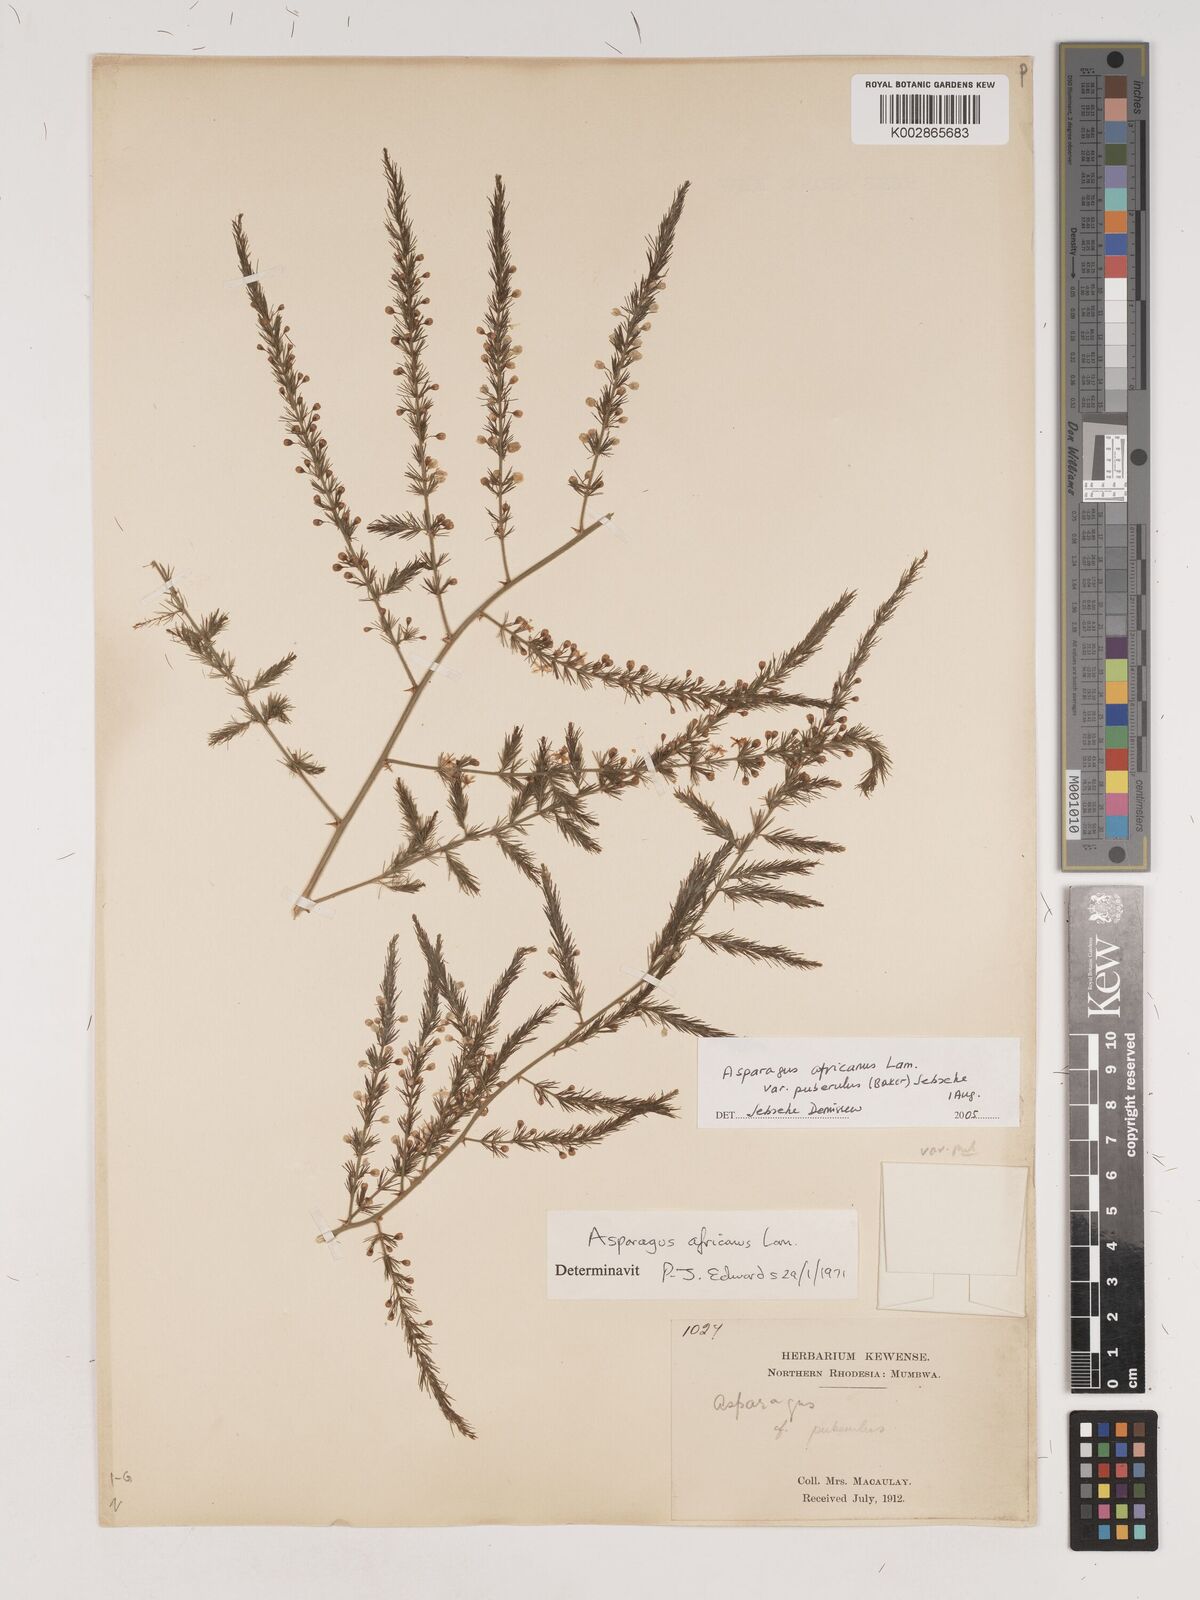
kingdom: Plantae
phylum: Tracheophyta
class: Liliopsida
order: Asparagales
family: Asparagaceae
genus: Asparagus
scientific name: Asparagus
